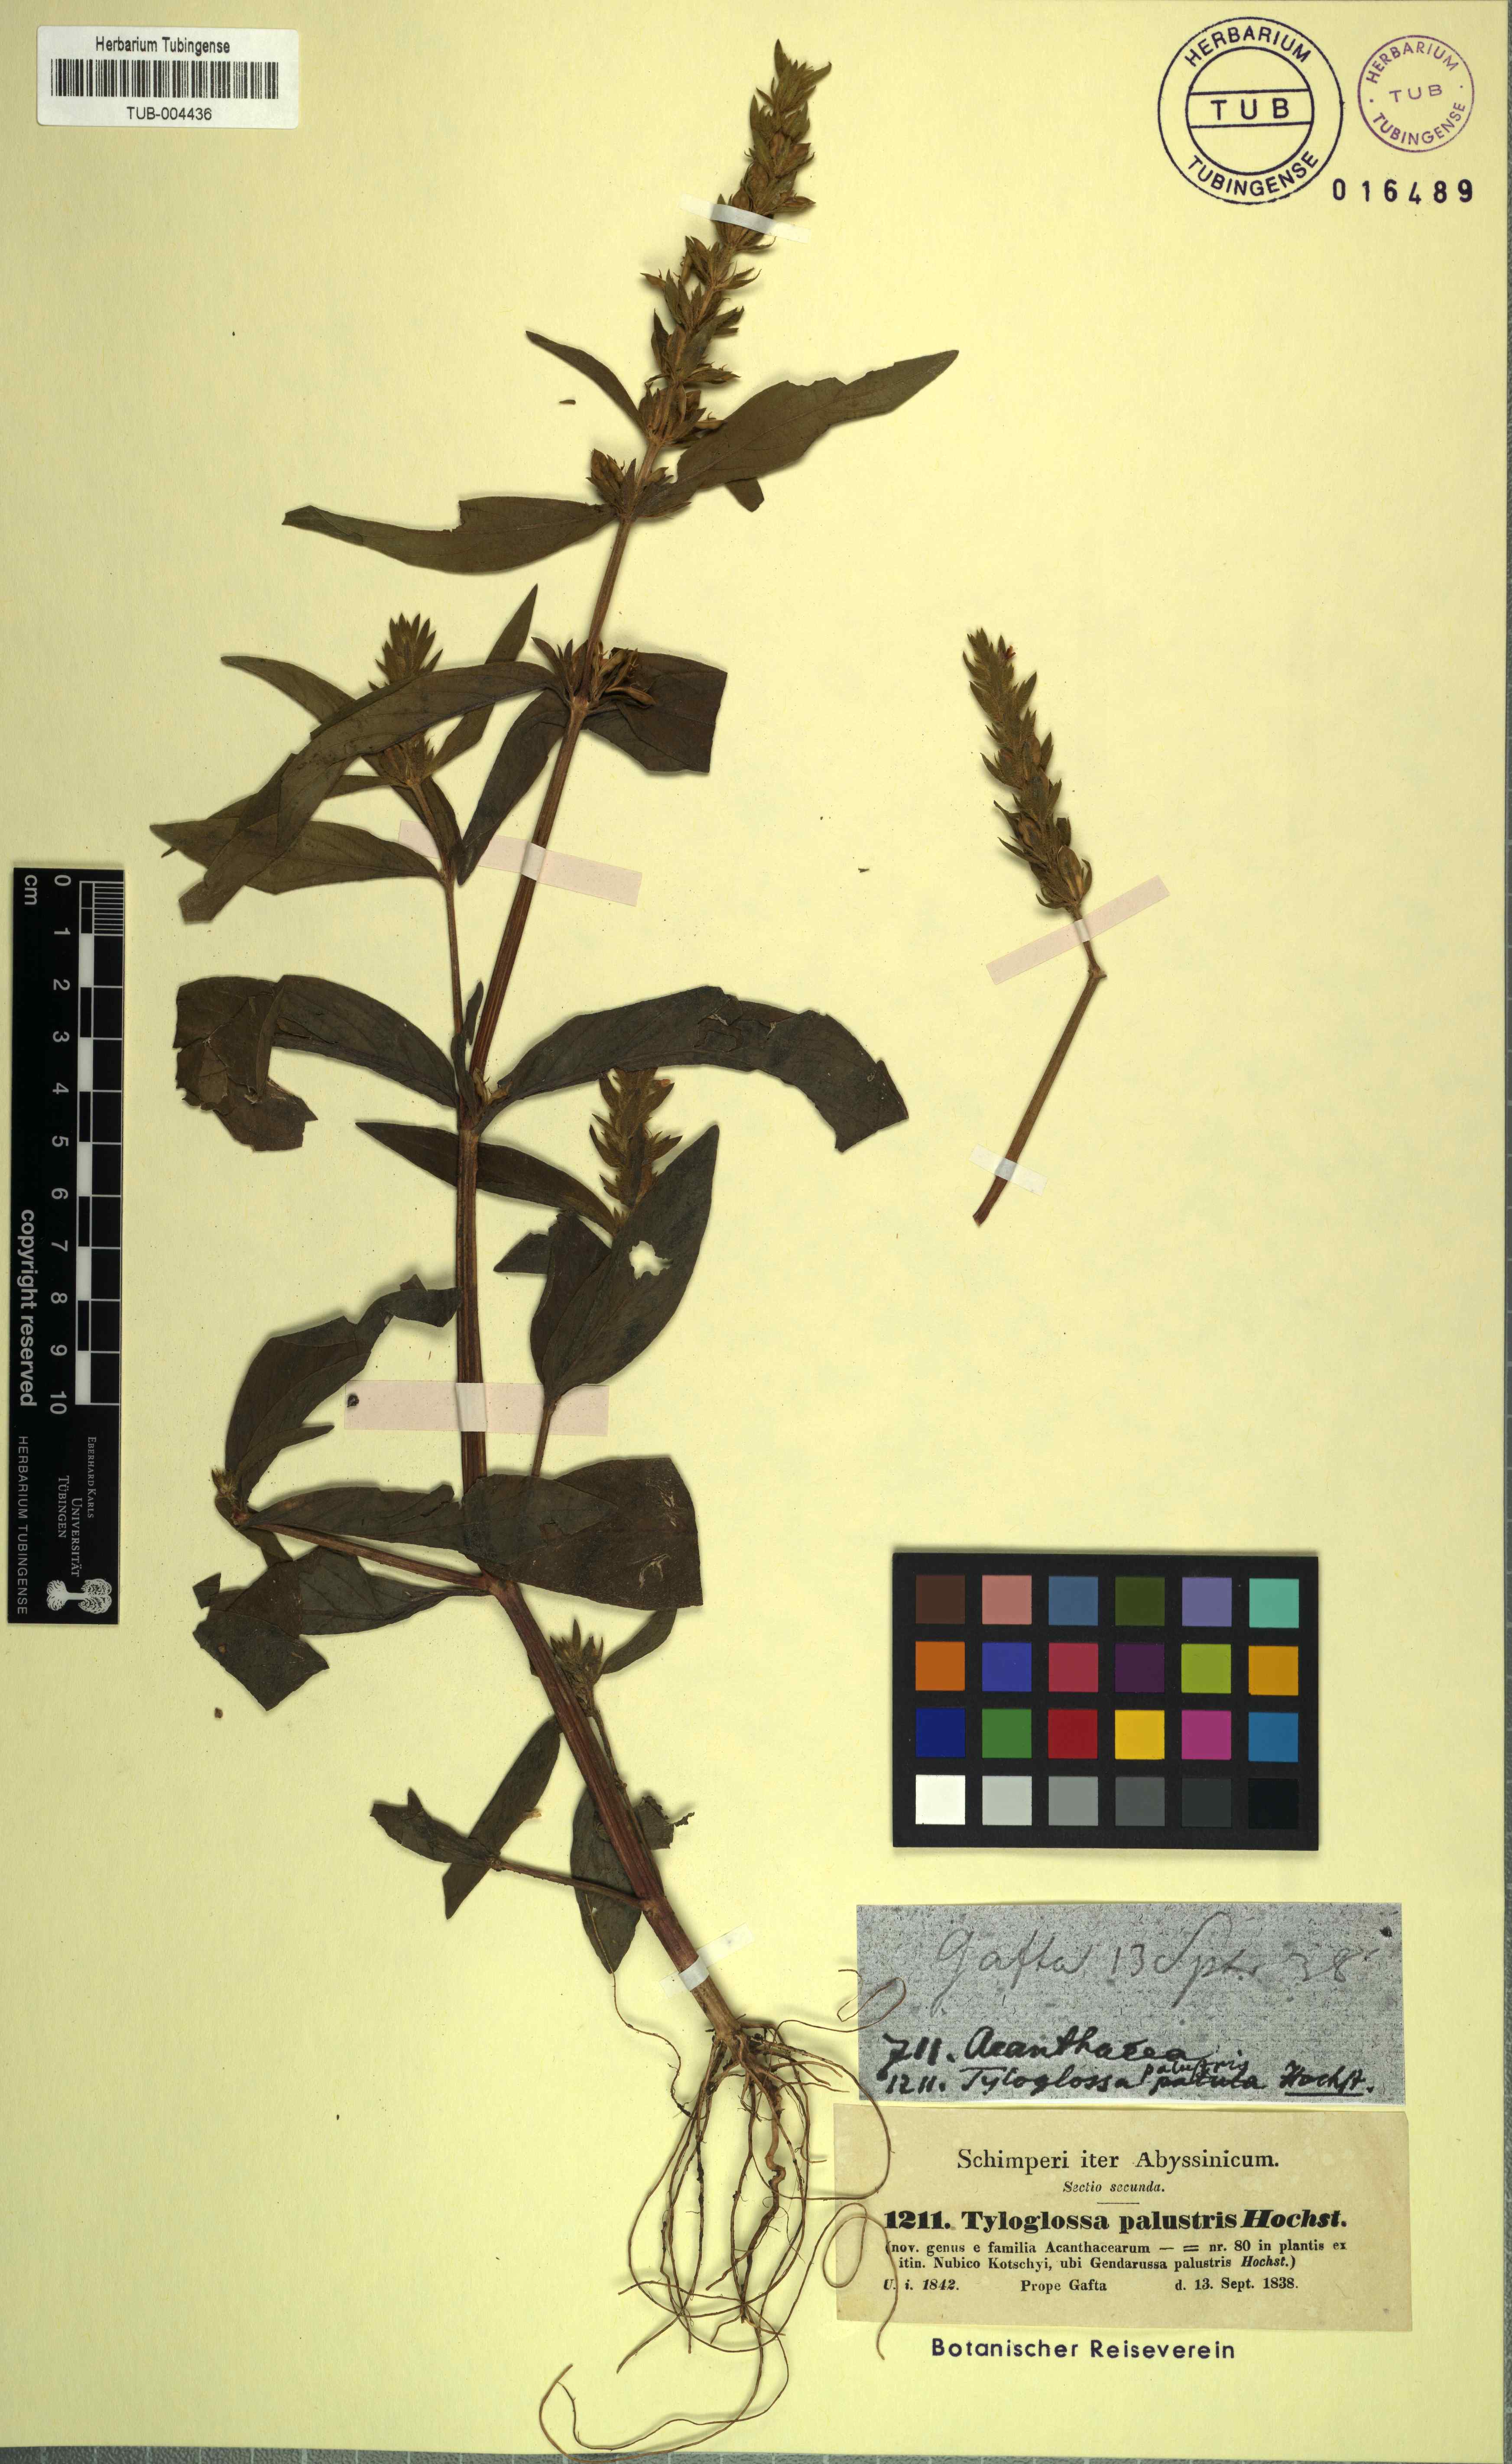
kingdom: Plantae
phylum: Tracheophyta
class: Magnoliopsida
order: Lamiales
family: Acanthaceae
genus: Justicia
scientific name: Justicia flava
